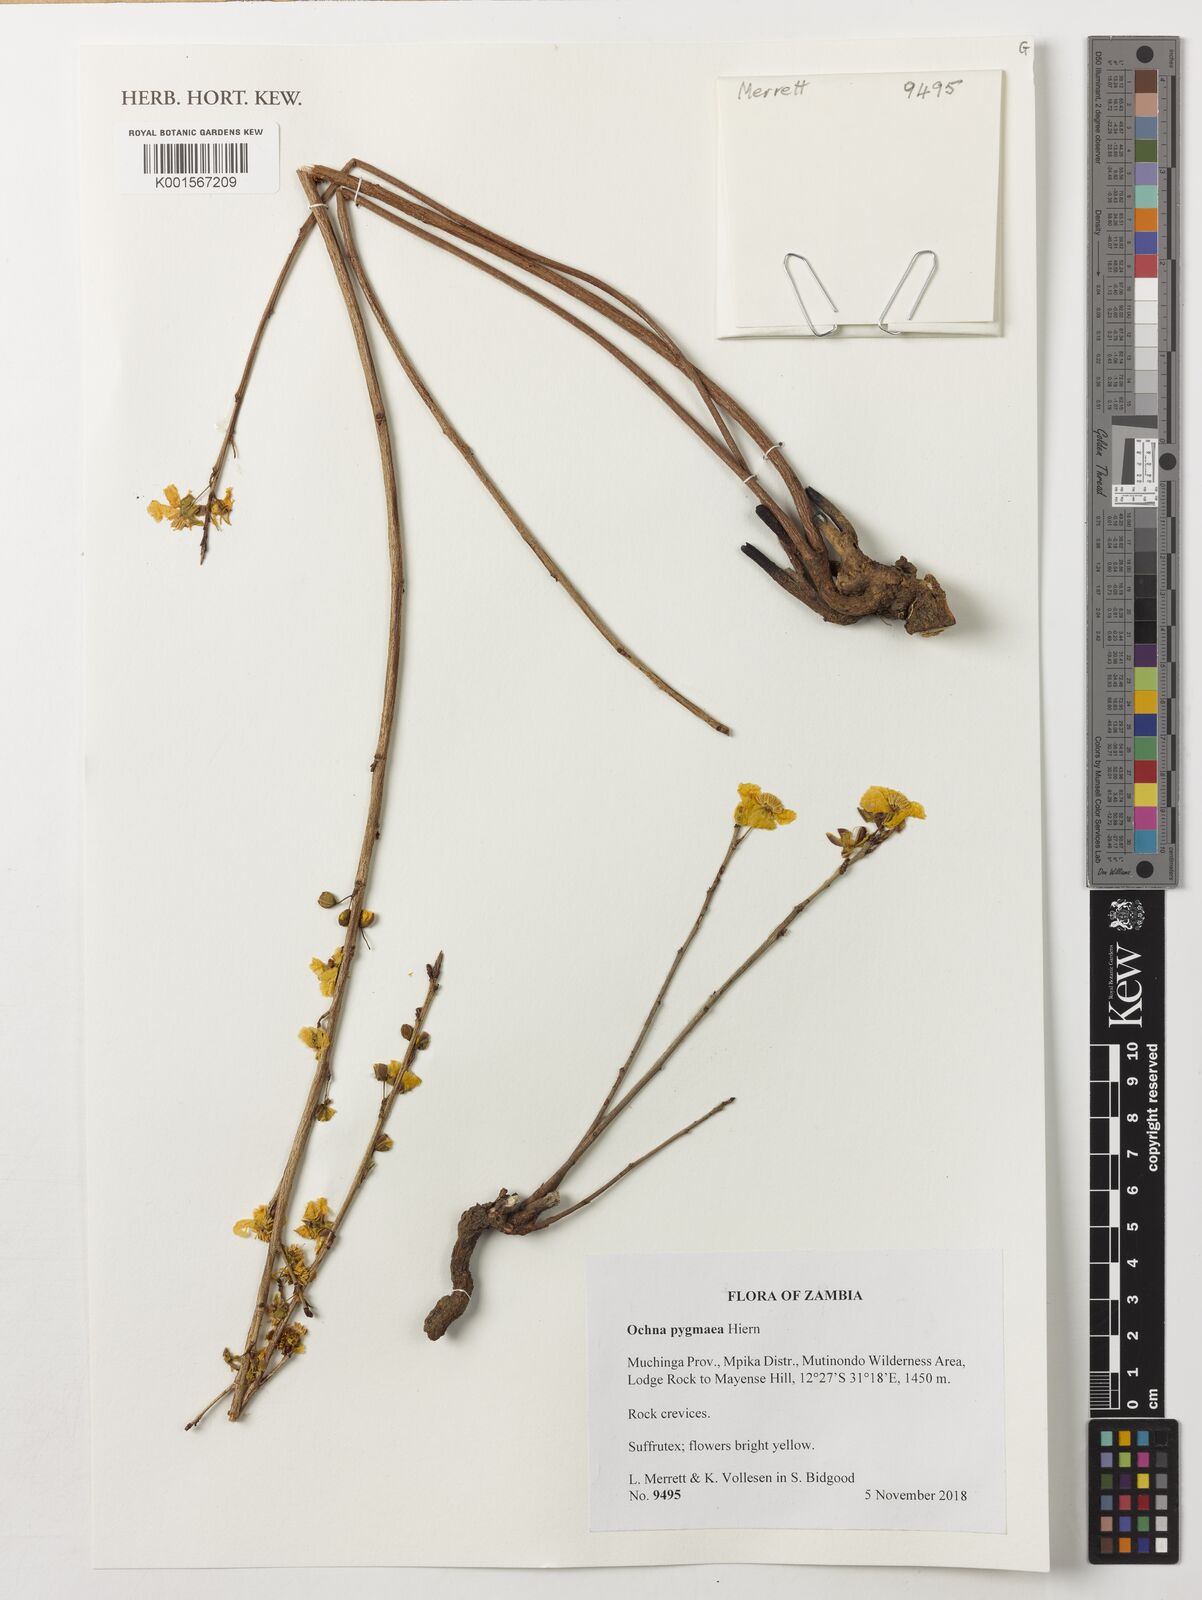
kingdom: Plantae
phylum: Tracheophyta
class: Magnoliopsida
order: Malpighiales
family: Ochnaceae
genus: Ochna
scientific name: Ochna pygmaea
